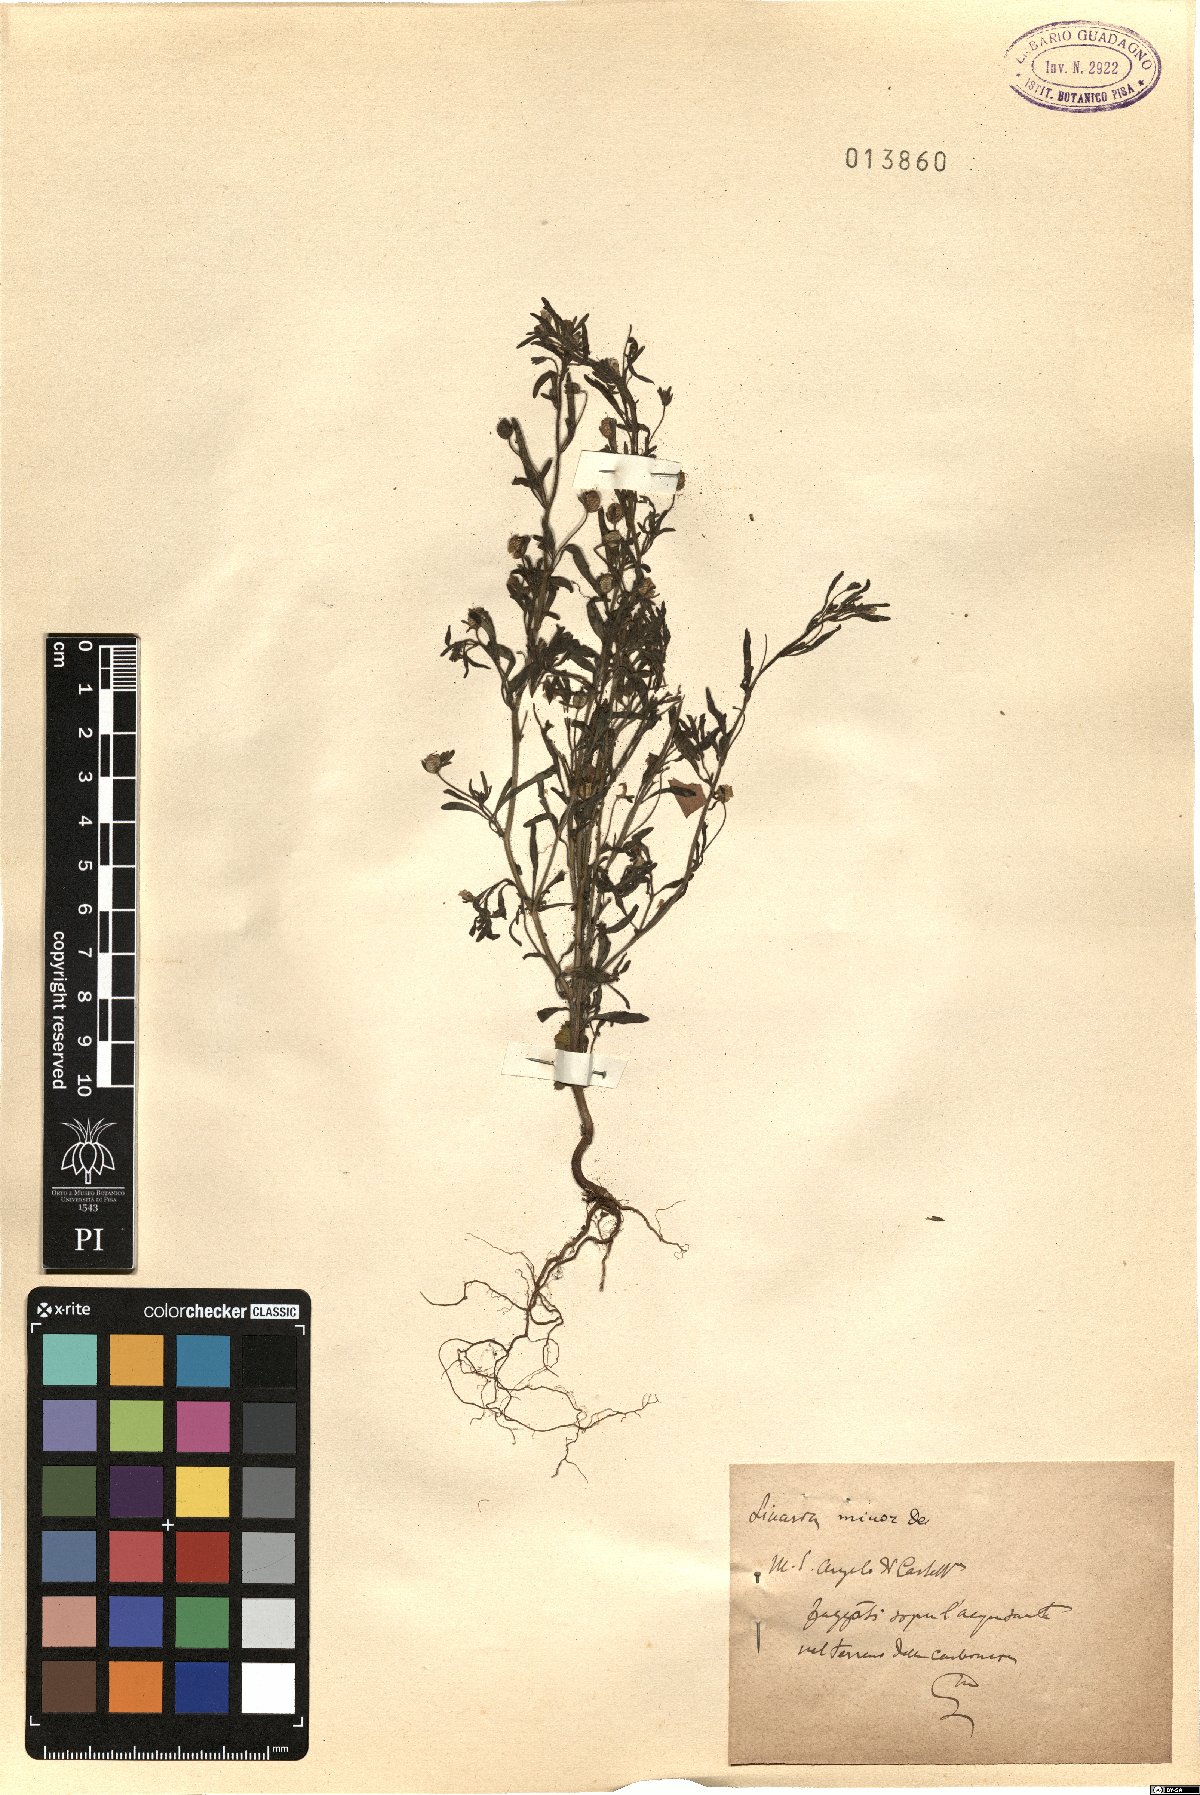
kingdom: Plantae
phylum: Tracheophyta
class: Magnoliopsida
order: Lamiales
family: Plantaginaceae
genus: Chaenorhinum
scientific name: Chaenorhinum minus
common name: Dwarf snapdragon
